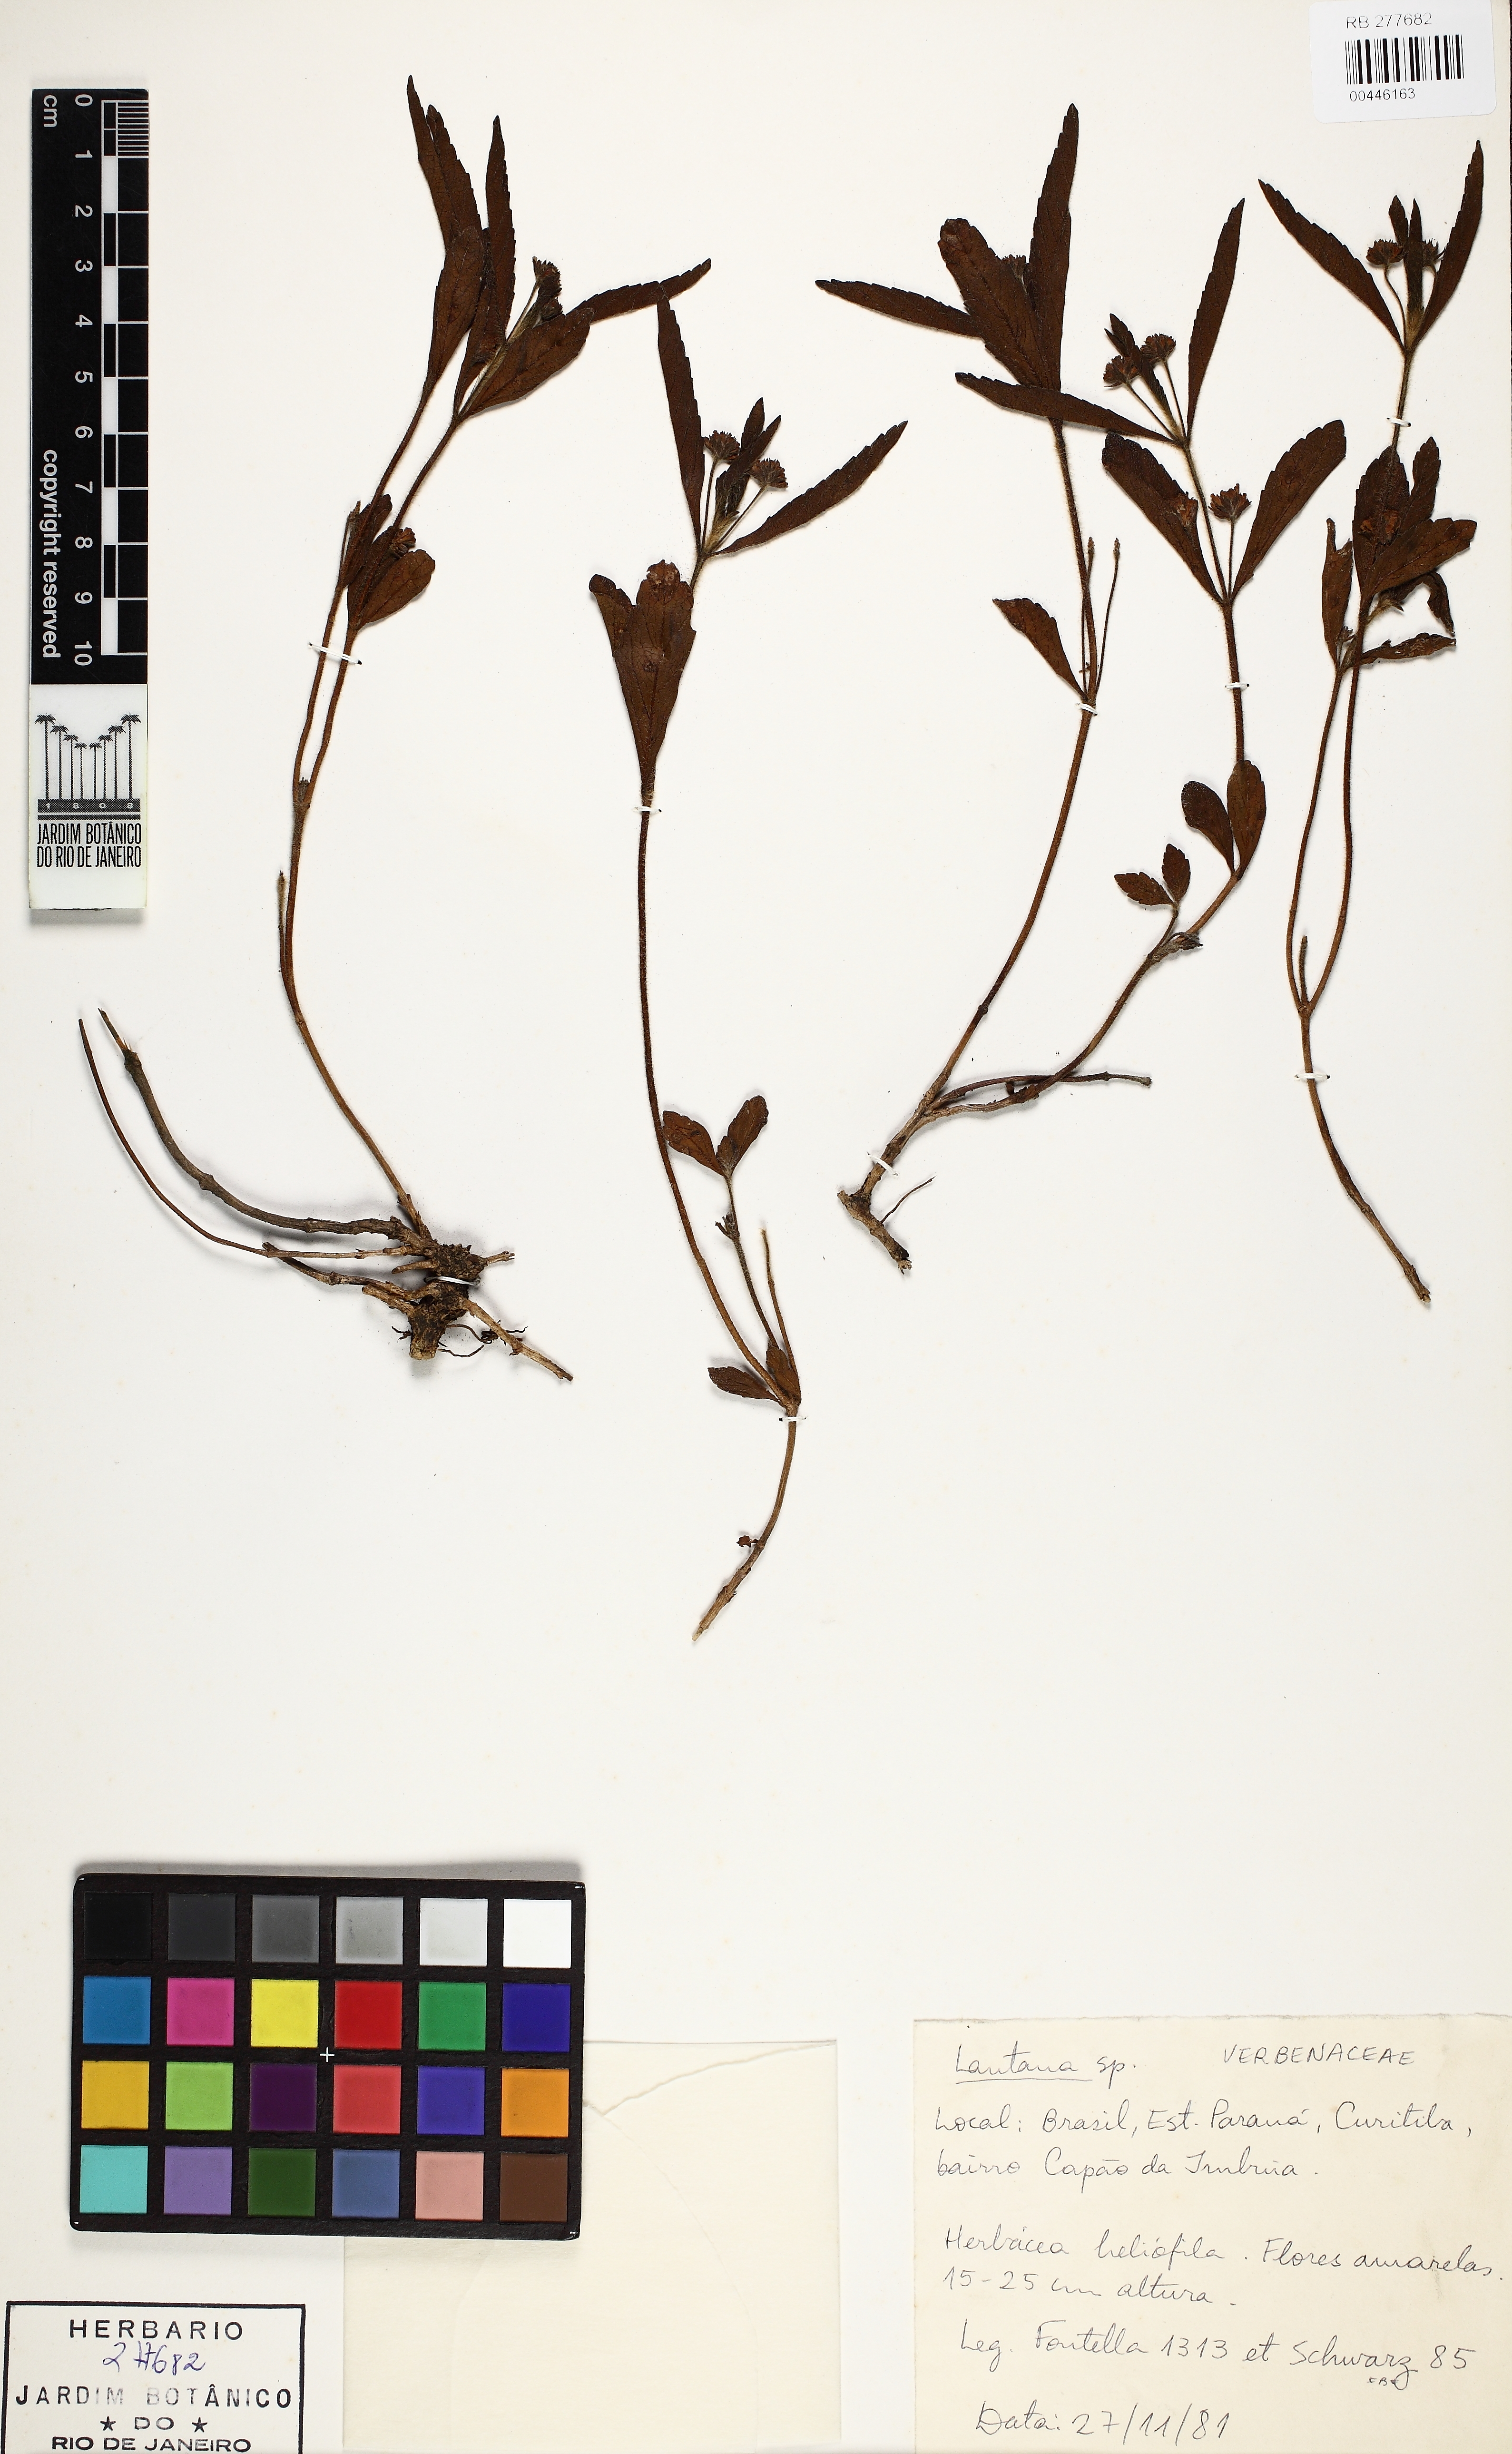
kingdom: Plantae
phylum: Tracheophyta
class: Magnoliopsida
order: Lamiales
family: Verbenaceae
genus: Lantana
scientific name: Lantana
